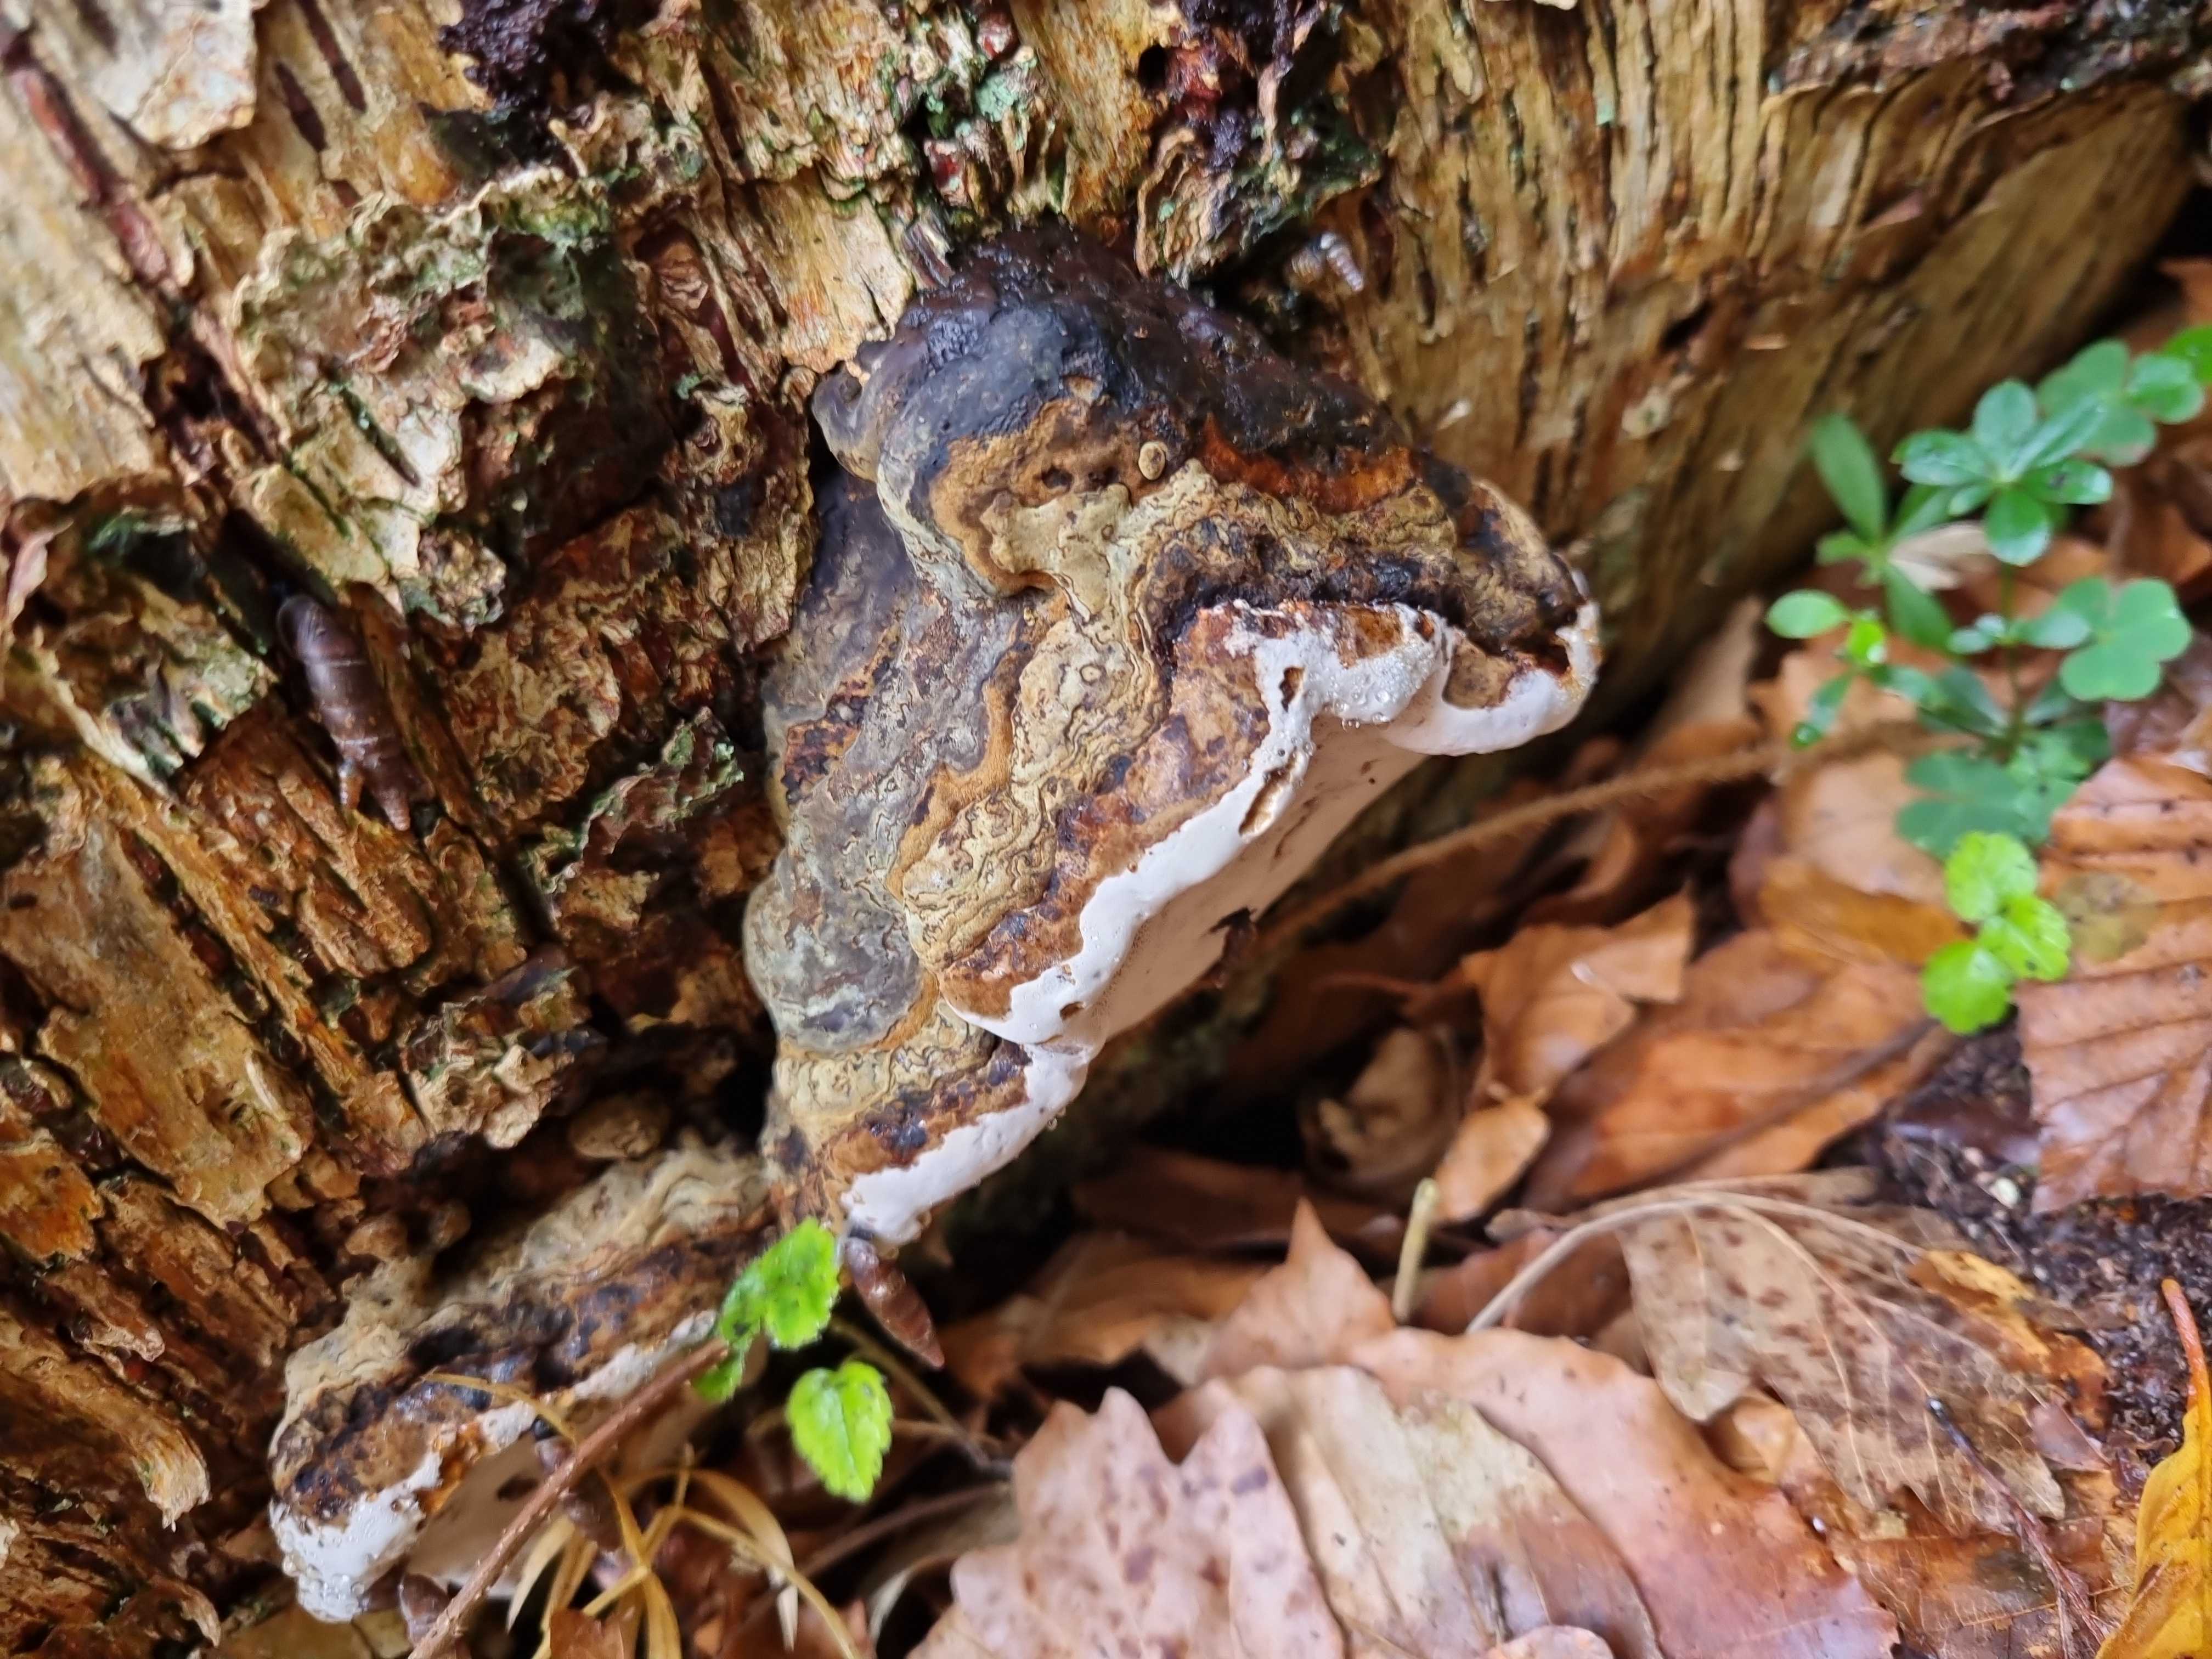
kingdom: Fungi
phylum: Basidiomycota
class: Agaricomycetes
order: Polyporales
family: Polyporaceae
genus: Fomes
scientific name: Fomes fomentarius
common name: tøndersvamp
